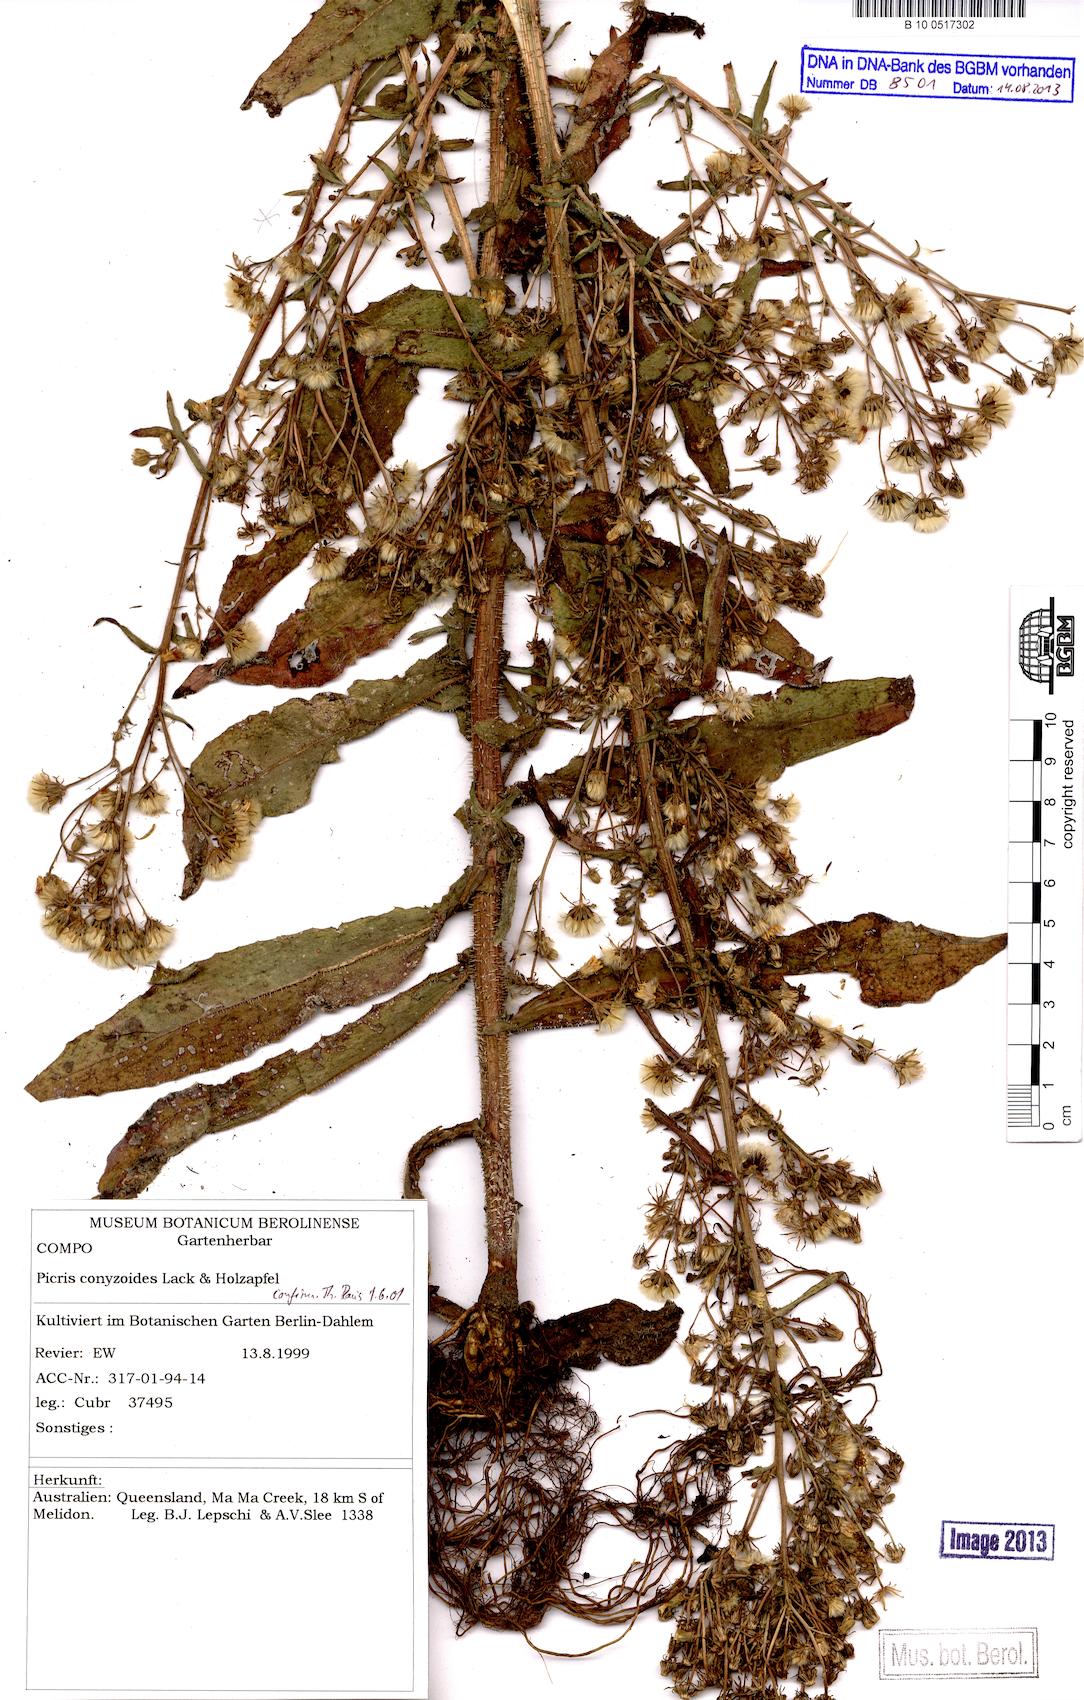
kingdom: Plantae
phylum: Tracheophyta
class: Magnoliopsida
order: Asterales
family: Asteraceae
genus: Picris
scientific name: Picris conyzoides
